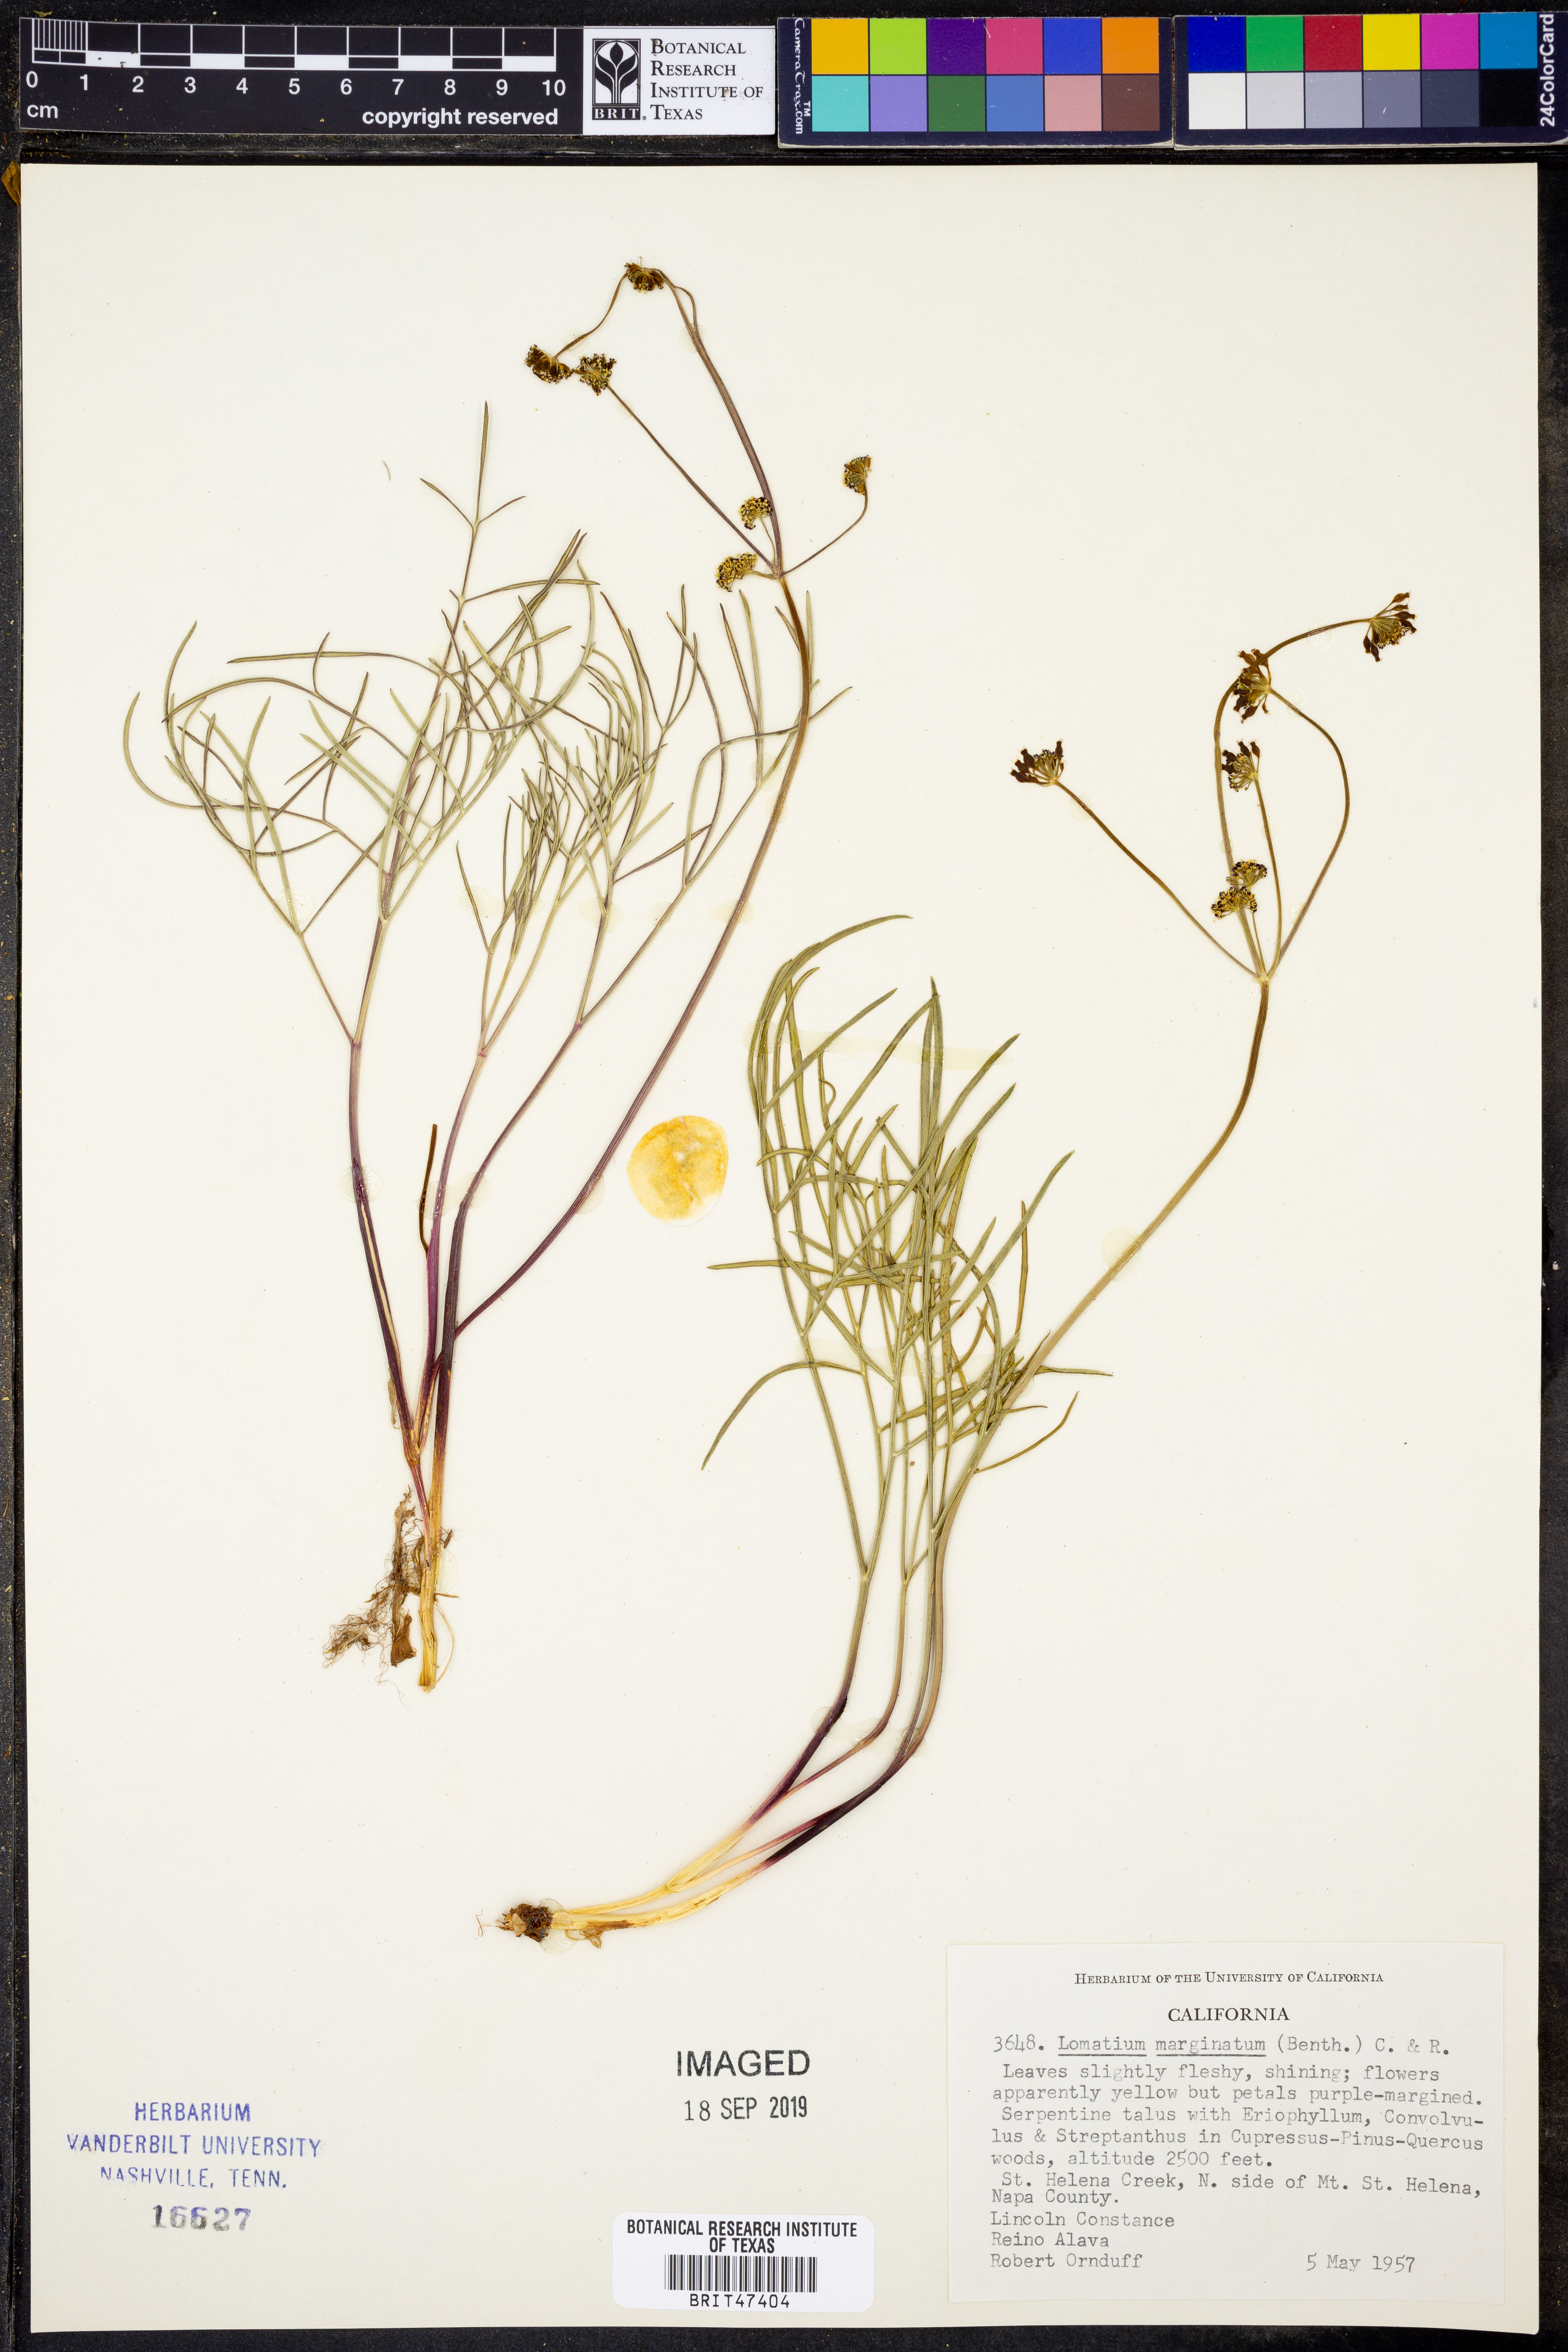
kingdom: Plantae
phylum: Tracheophyta
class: Magnoliopsida
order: Apiales
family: Apiaceae
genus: Lomatium
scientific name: Lomatium marginatum
